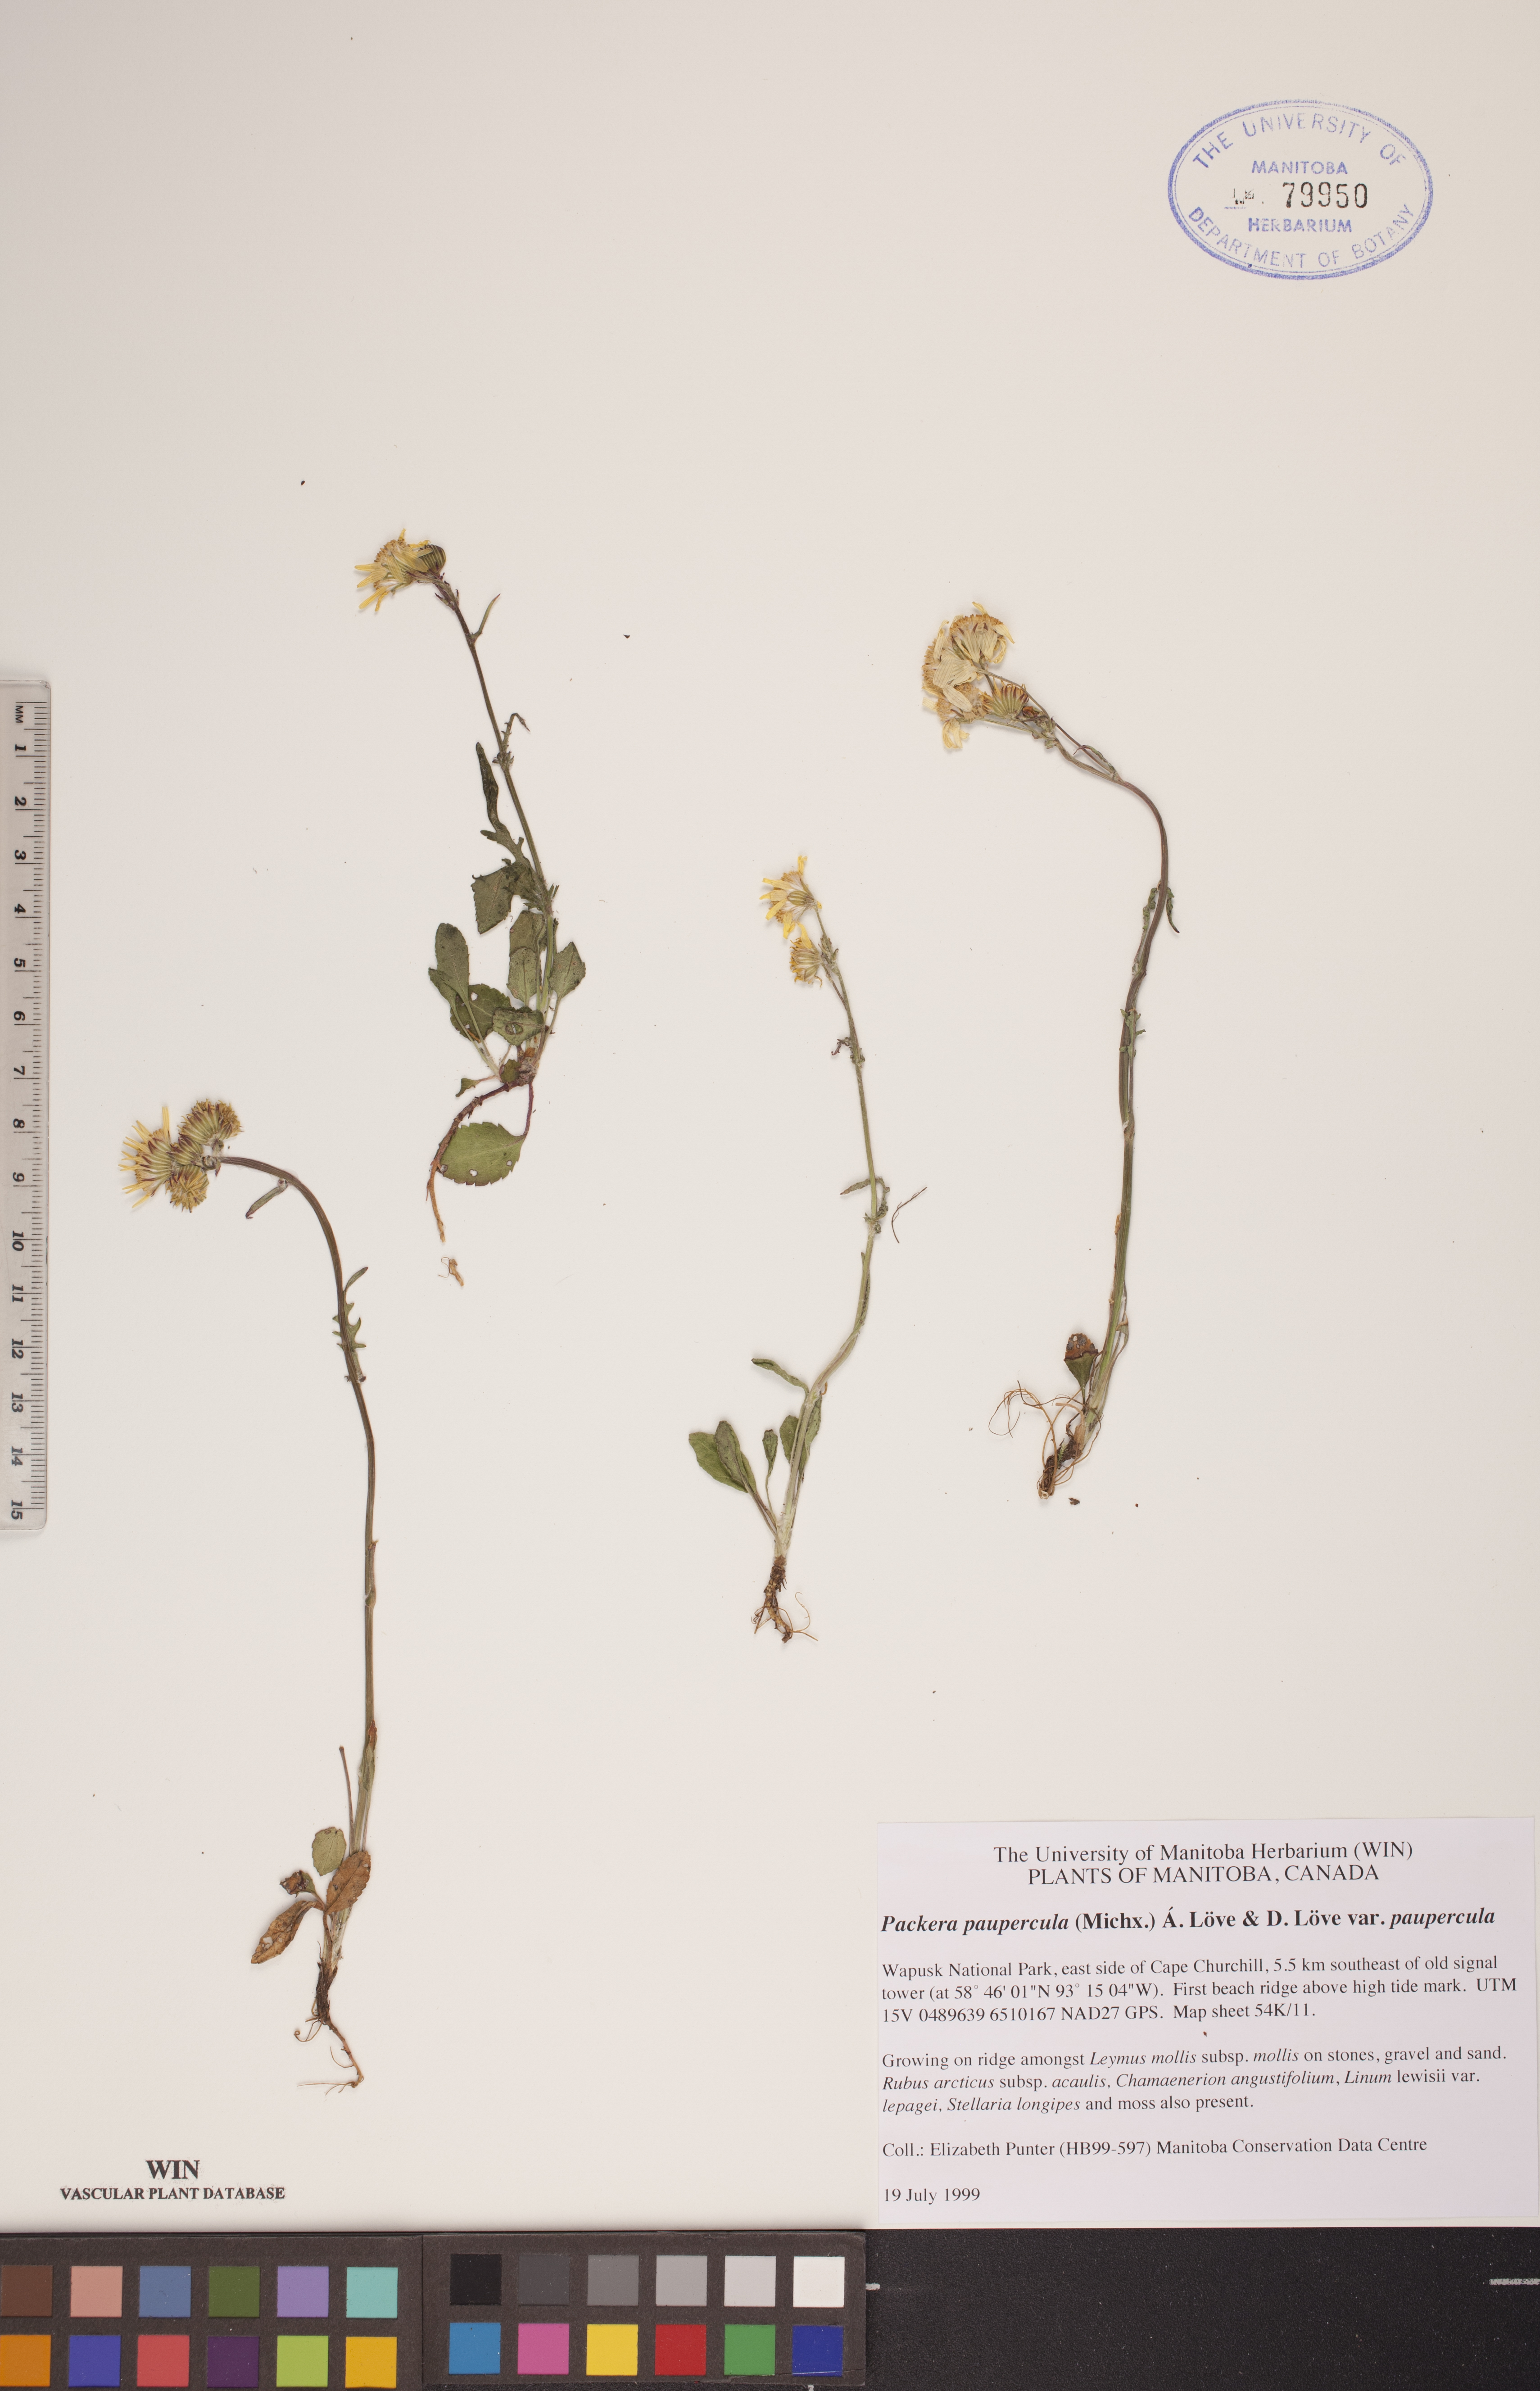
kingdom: Plantae
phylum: Tracheophyta
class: Magnoliopsida
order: Asterales
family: Asteraceae
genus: Packera
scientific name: Packera paupercula
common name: Balsam groundsel
